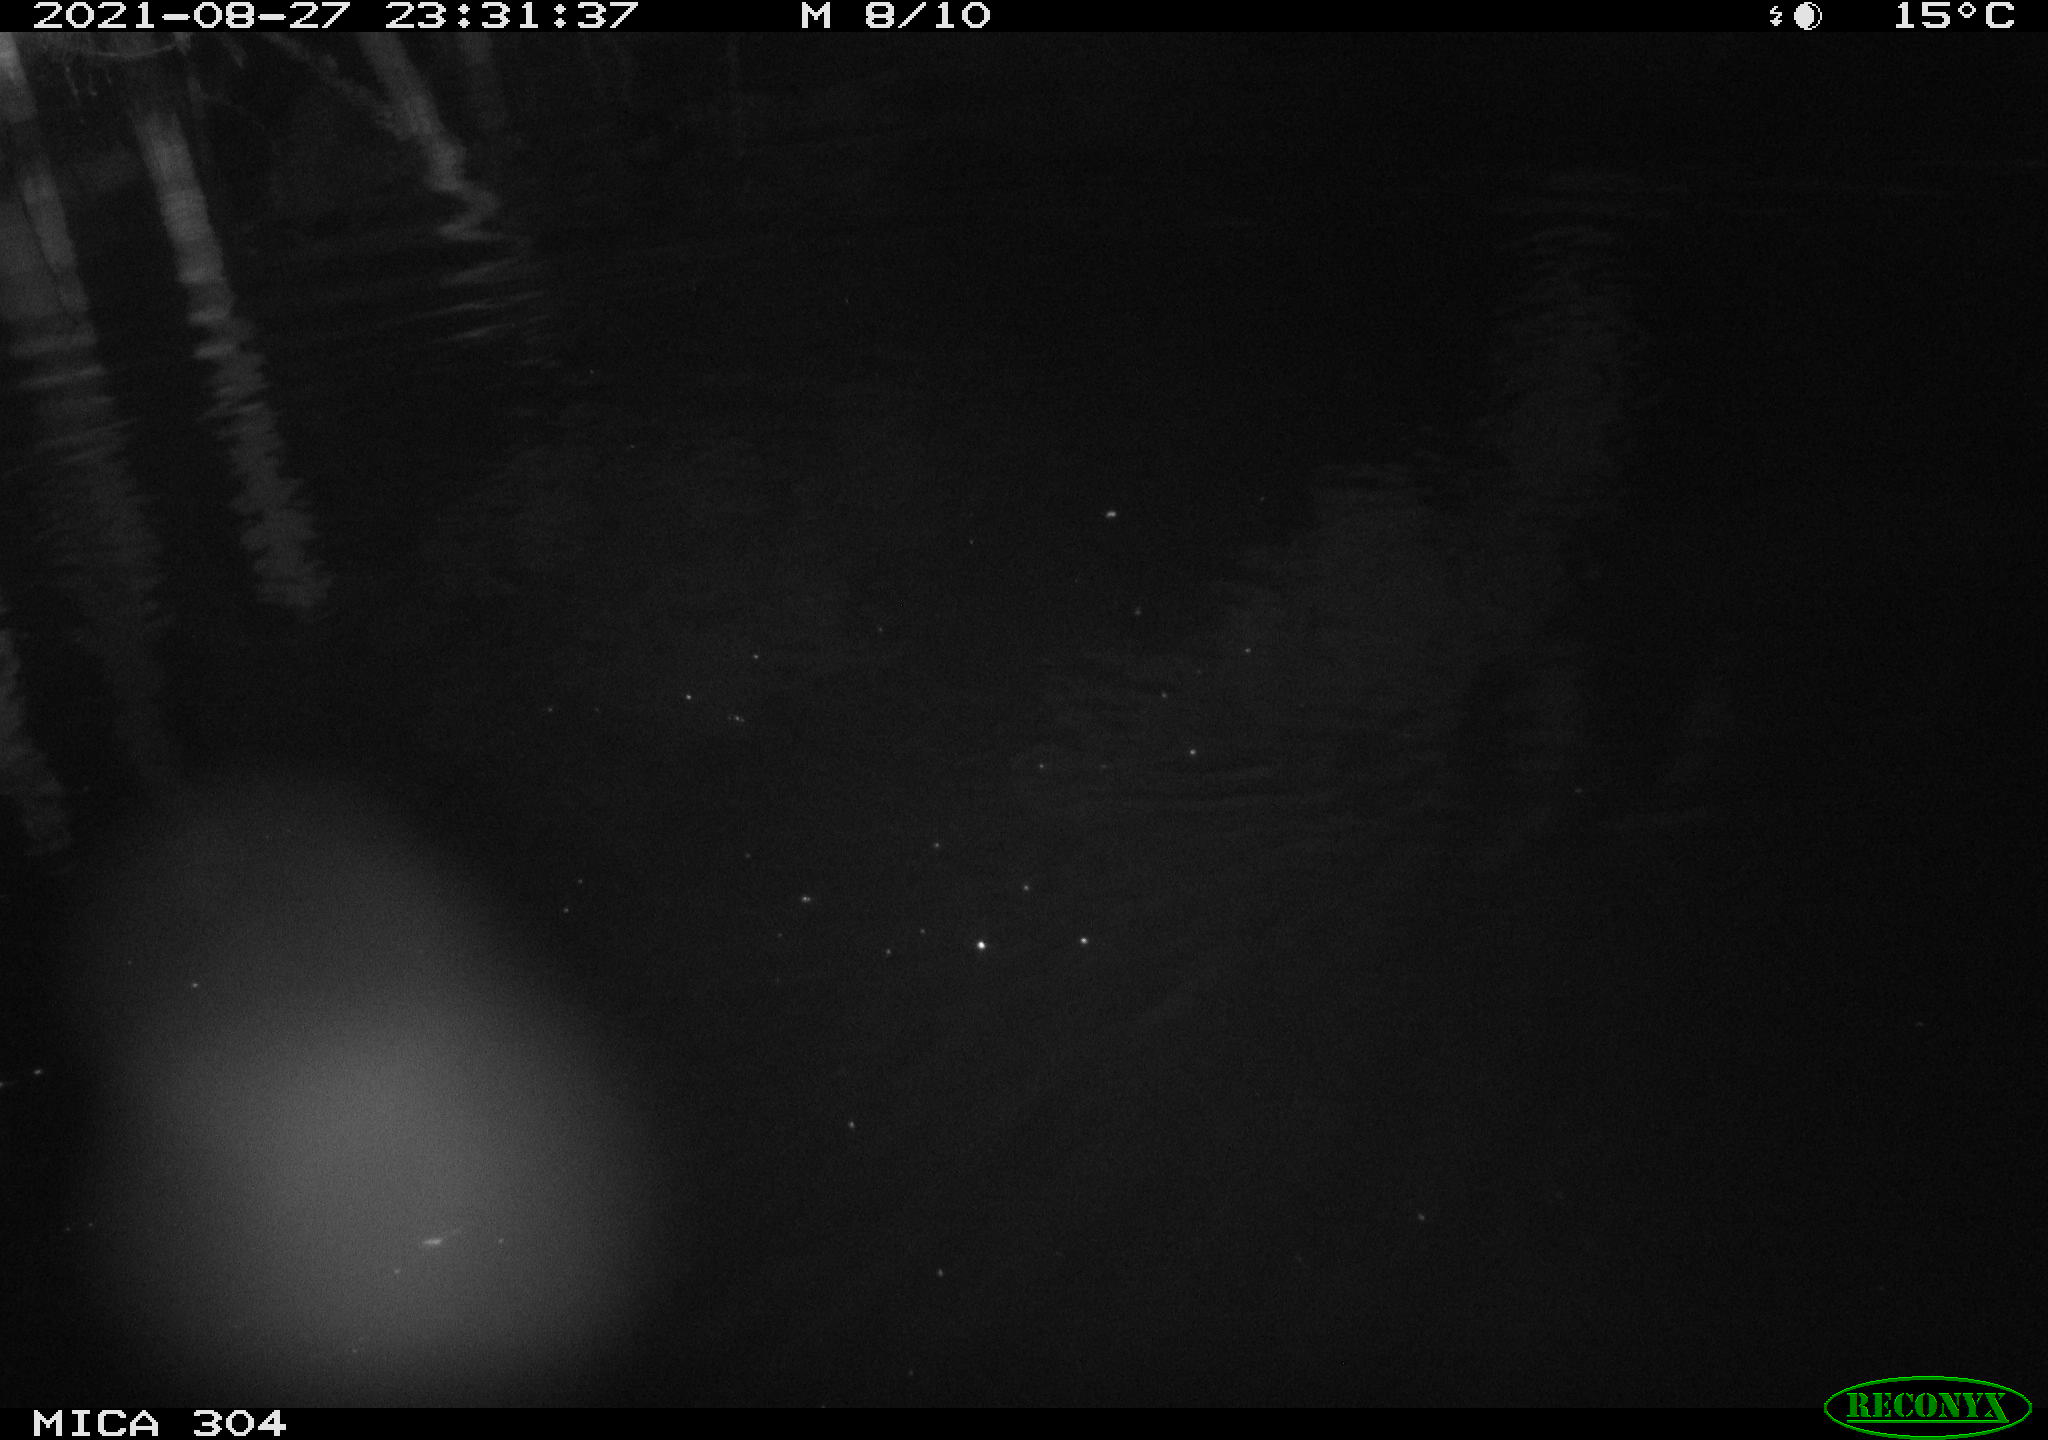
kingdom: Animalia
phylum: Chordata
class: Mammalia
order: Rodentia
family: Muridae
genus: Rattus
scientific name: Rattus norvegicus
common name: Brown rat
